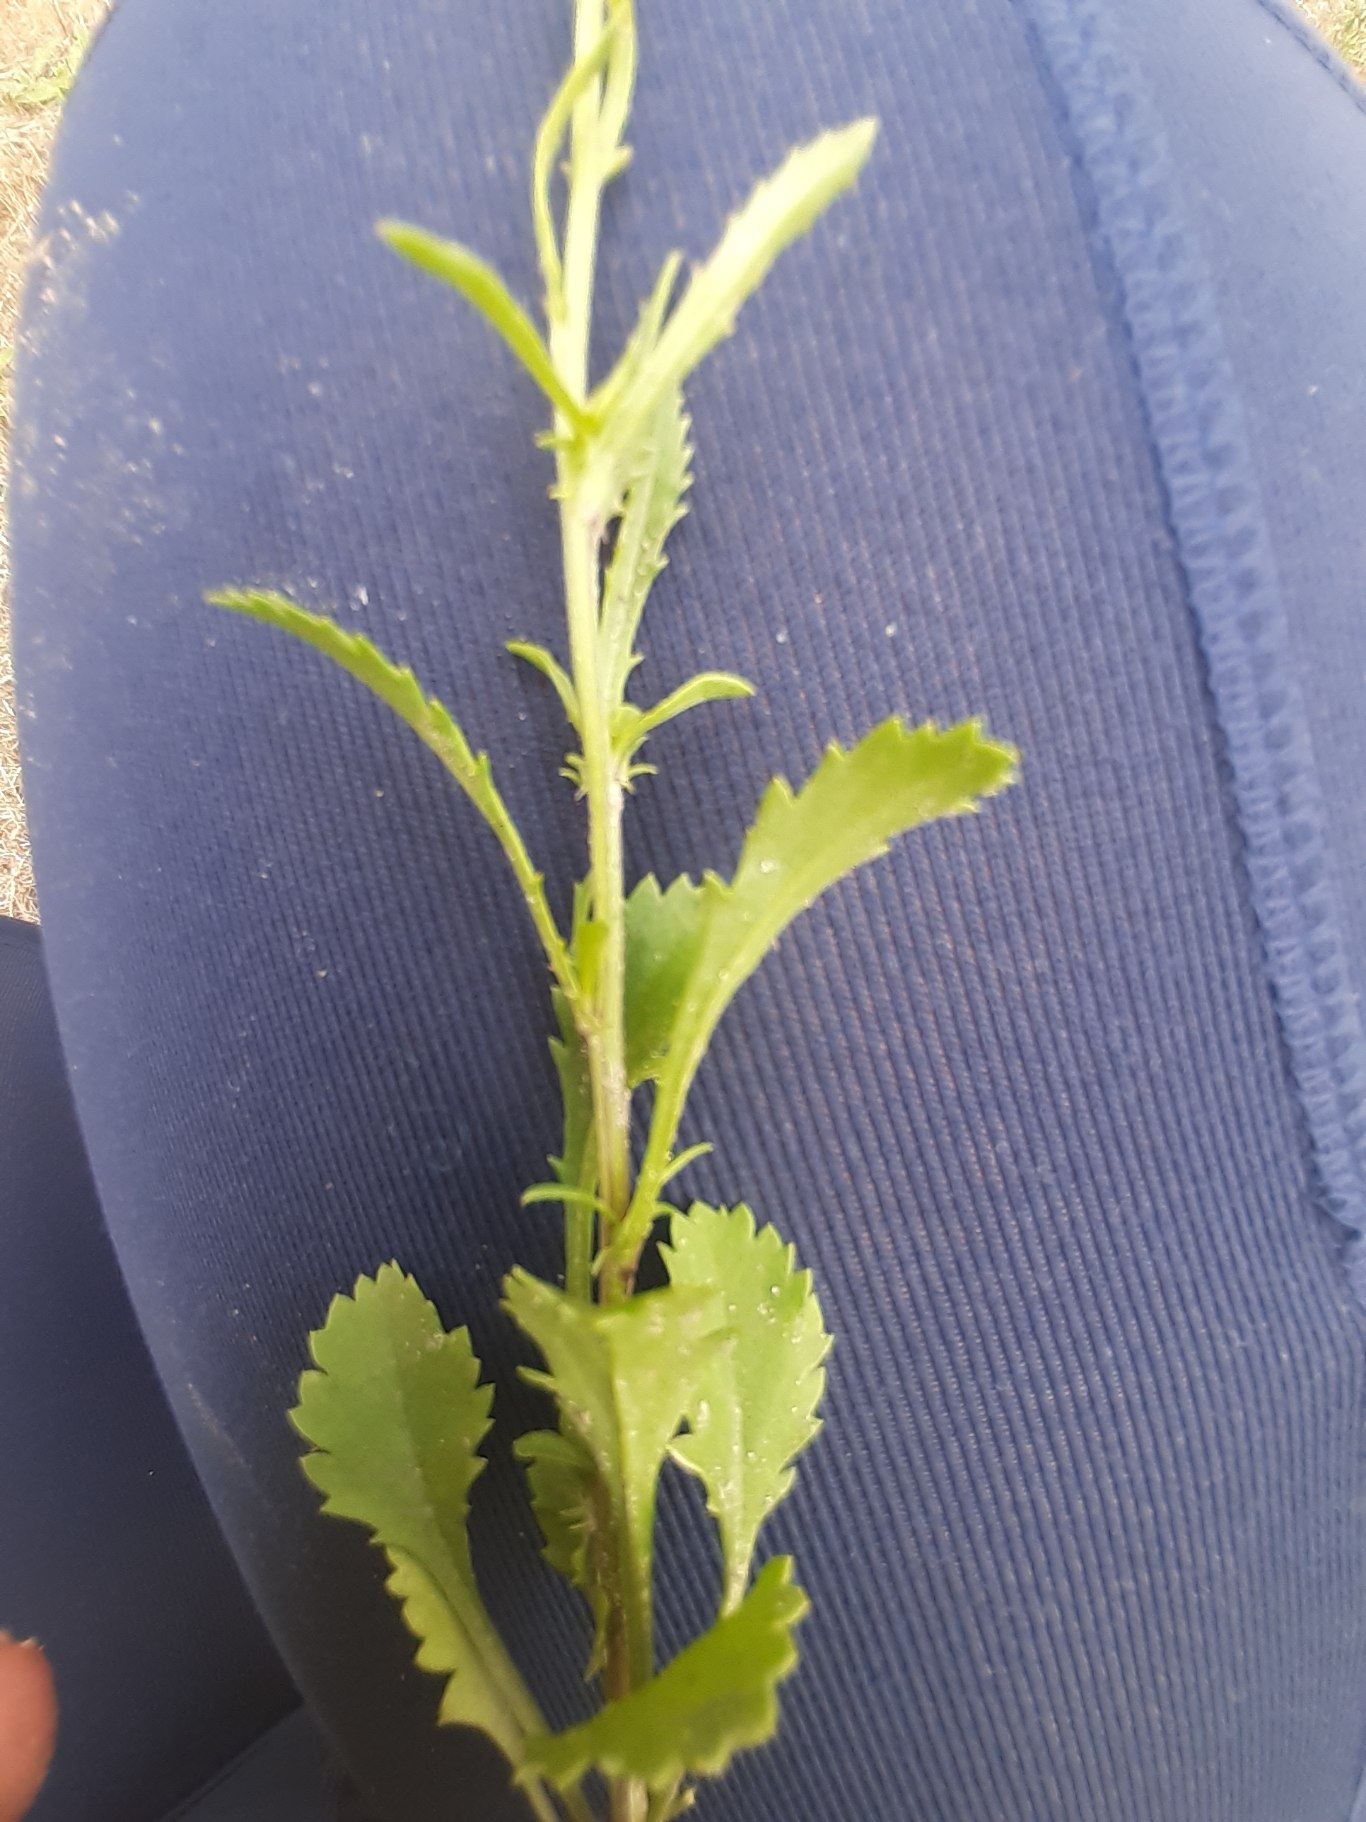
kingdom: Plantae
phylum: Tracheophyta
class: Magnoliopsida
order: Asterales
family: Asteraceae
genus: Leucanthemum
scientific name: Leucanthemum vulgare
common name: Hvid okseøje
